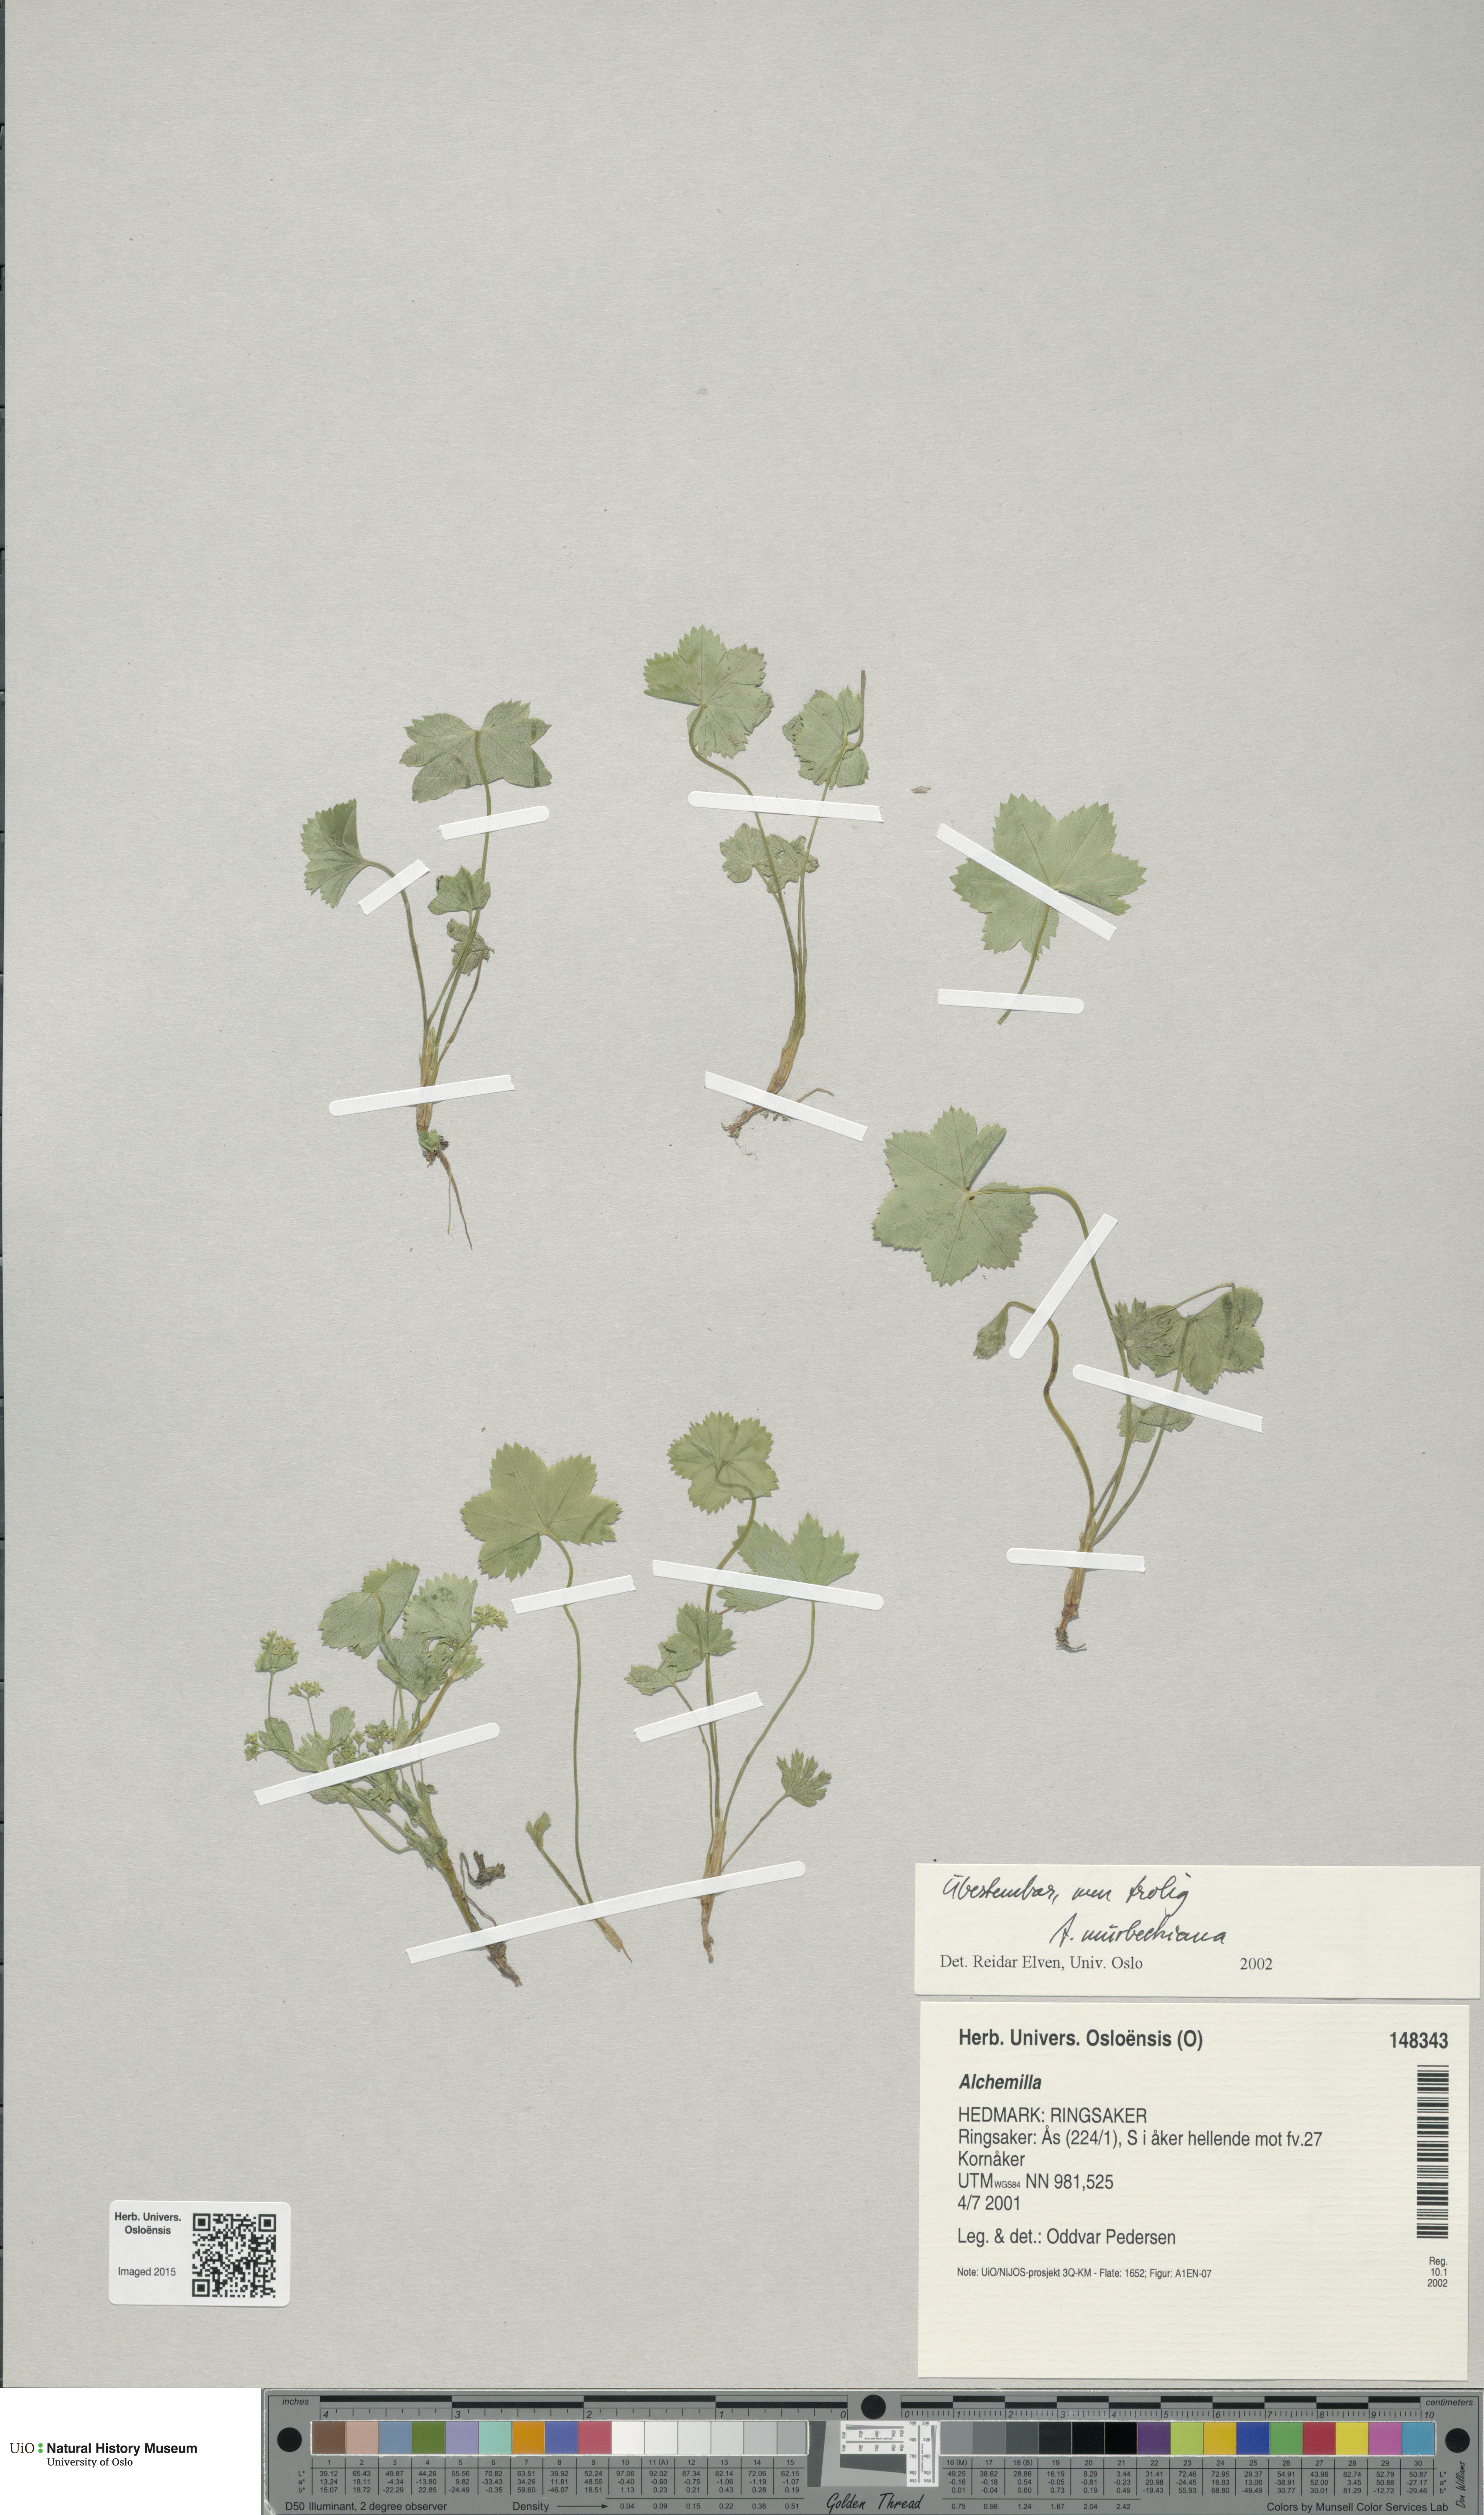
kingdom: Plantae
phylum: Tracheophyta
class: Magnoliopsida
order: Rosales
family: Rosaceae
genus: Alchemilla
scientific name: Alchemilla
